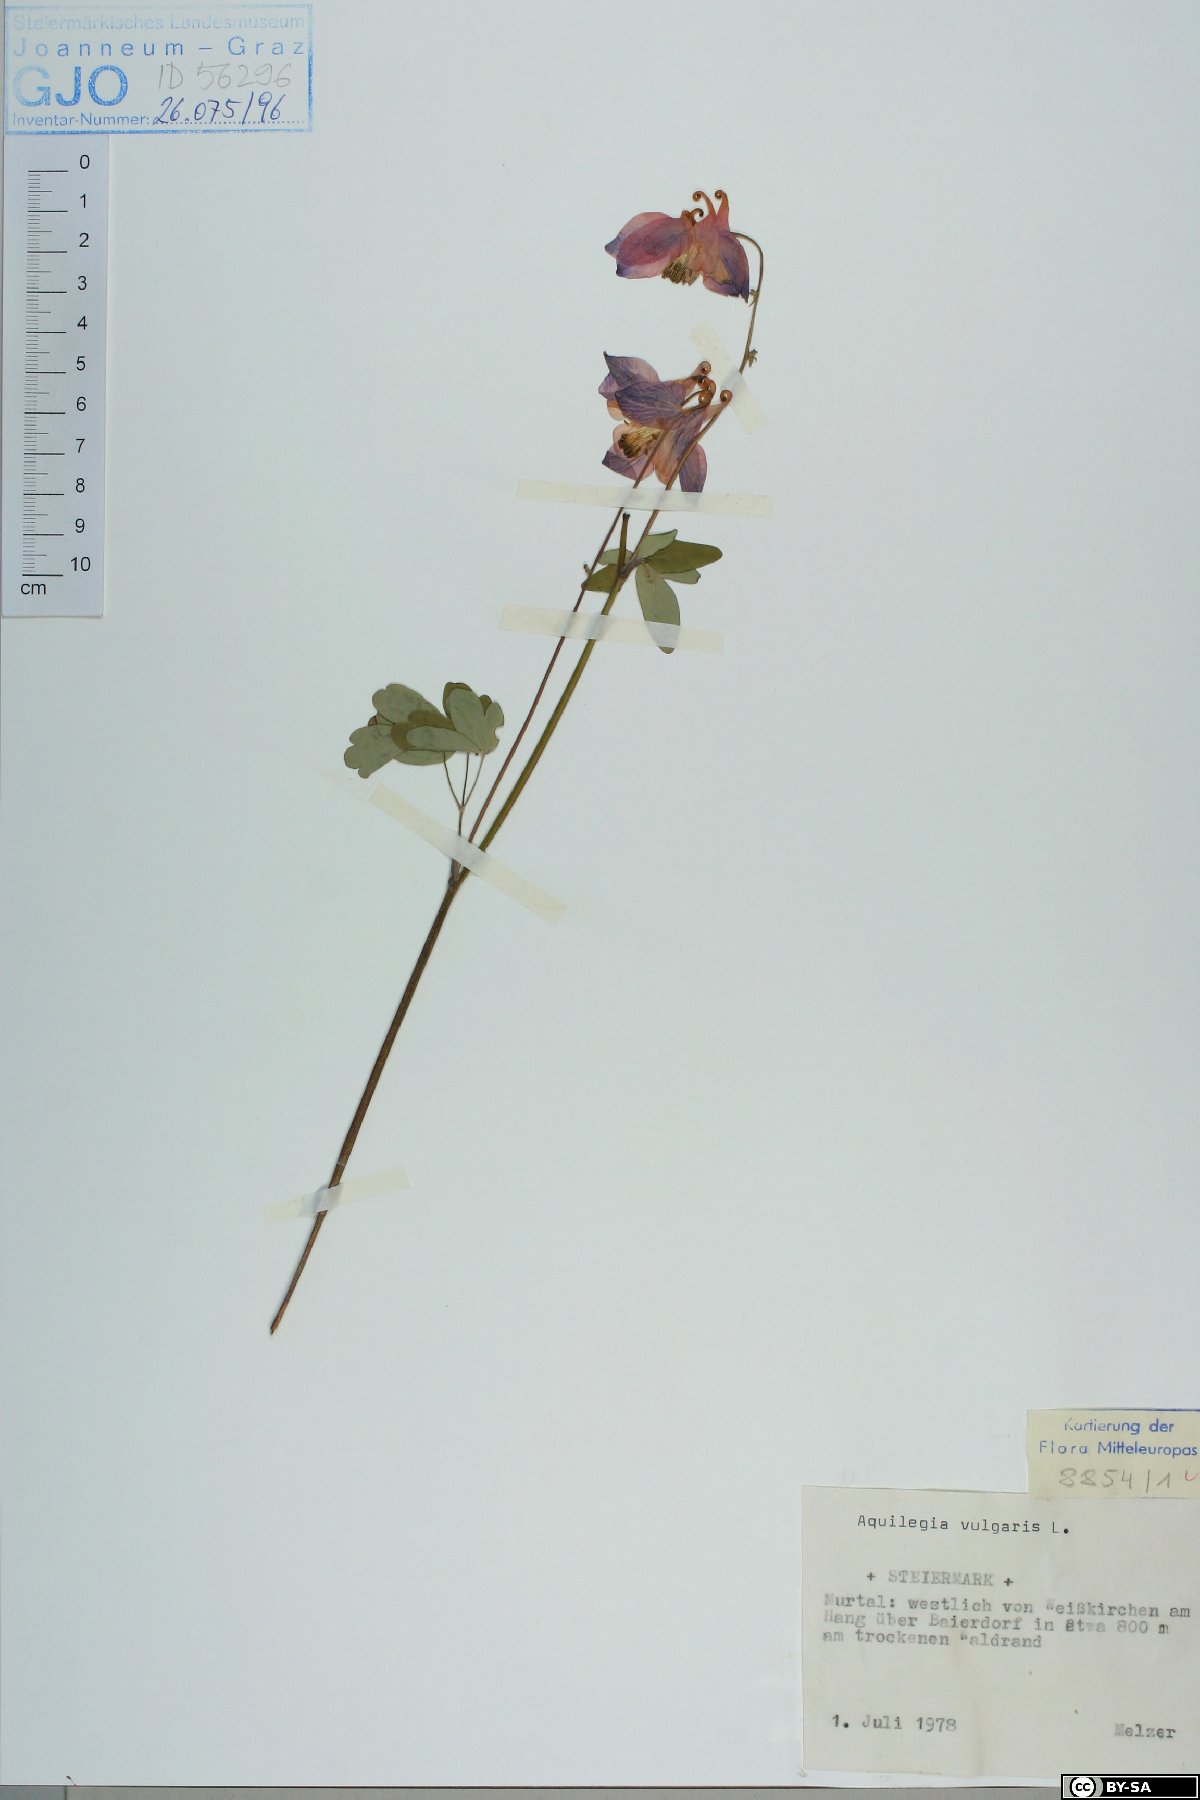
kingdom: Plantae
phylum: Tracheophyta
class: Magnoliopsida
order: Ranunculales
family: Ranunculaceae
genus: Aquilegia
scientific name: Aquilegia vulgaris
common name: Columbine
